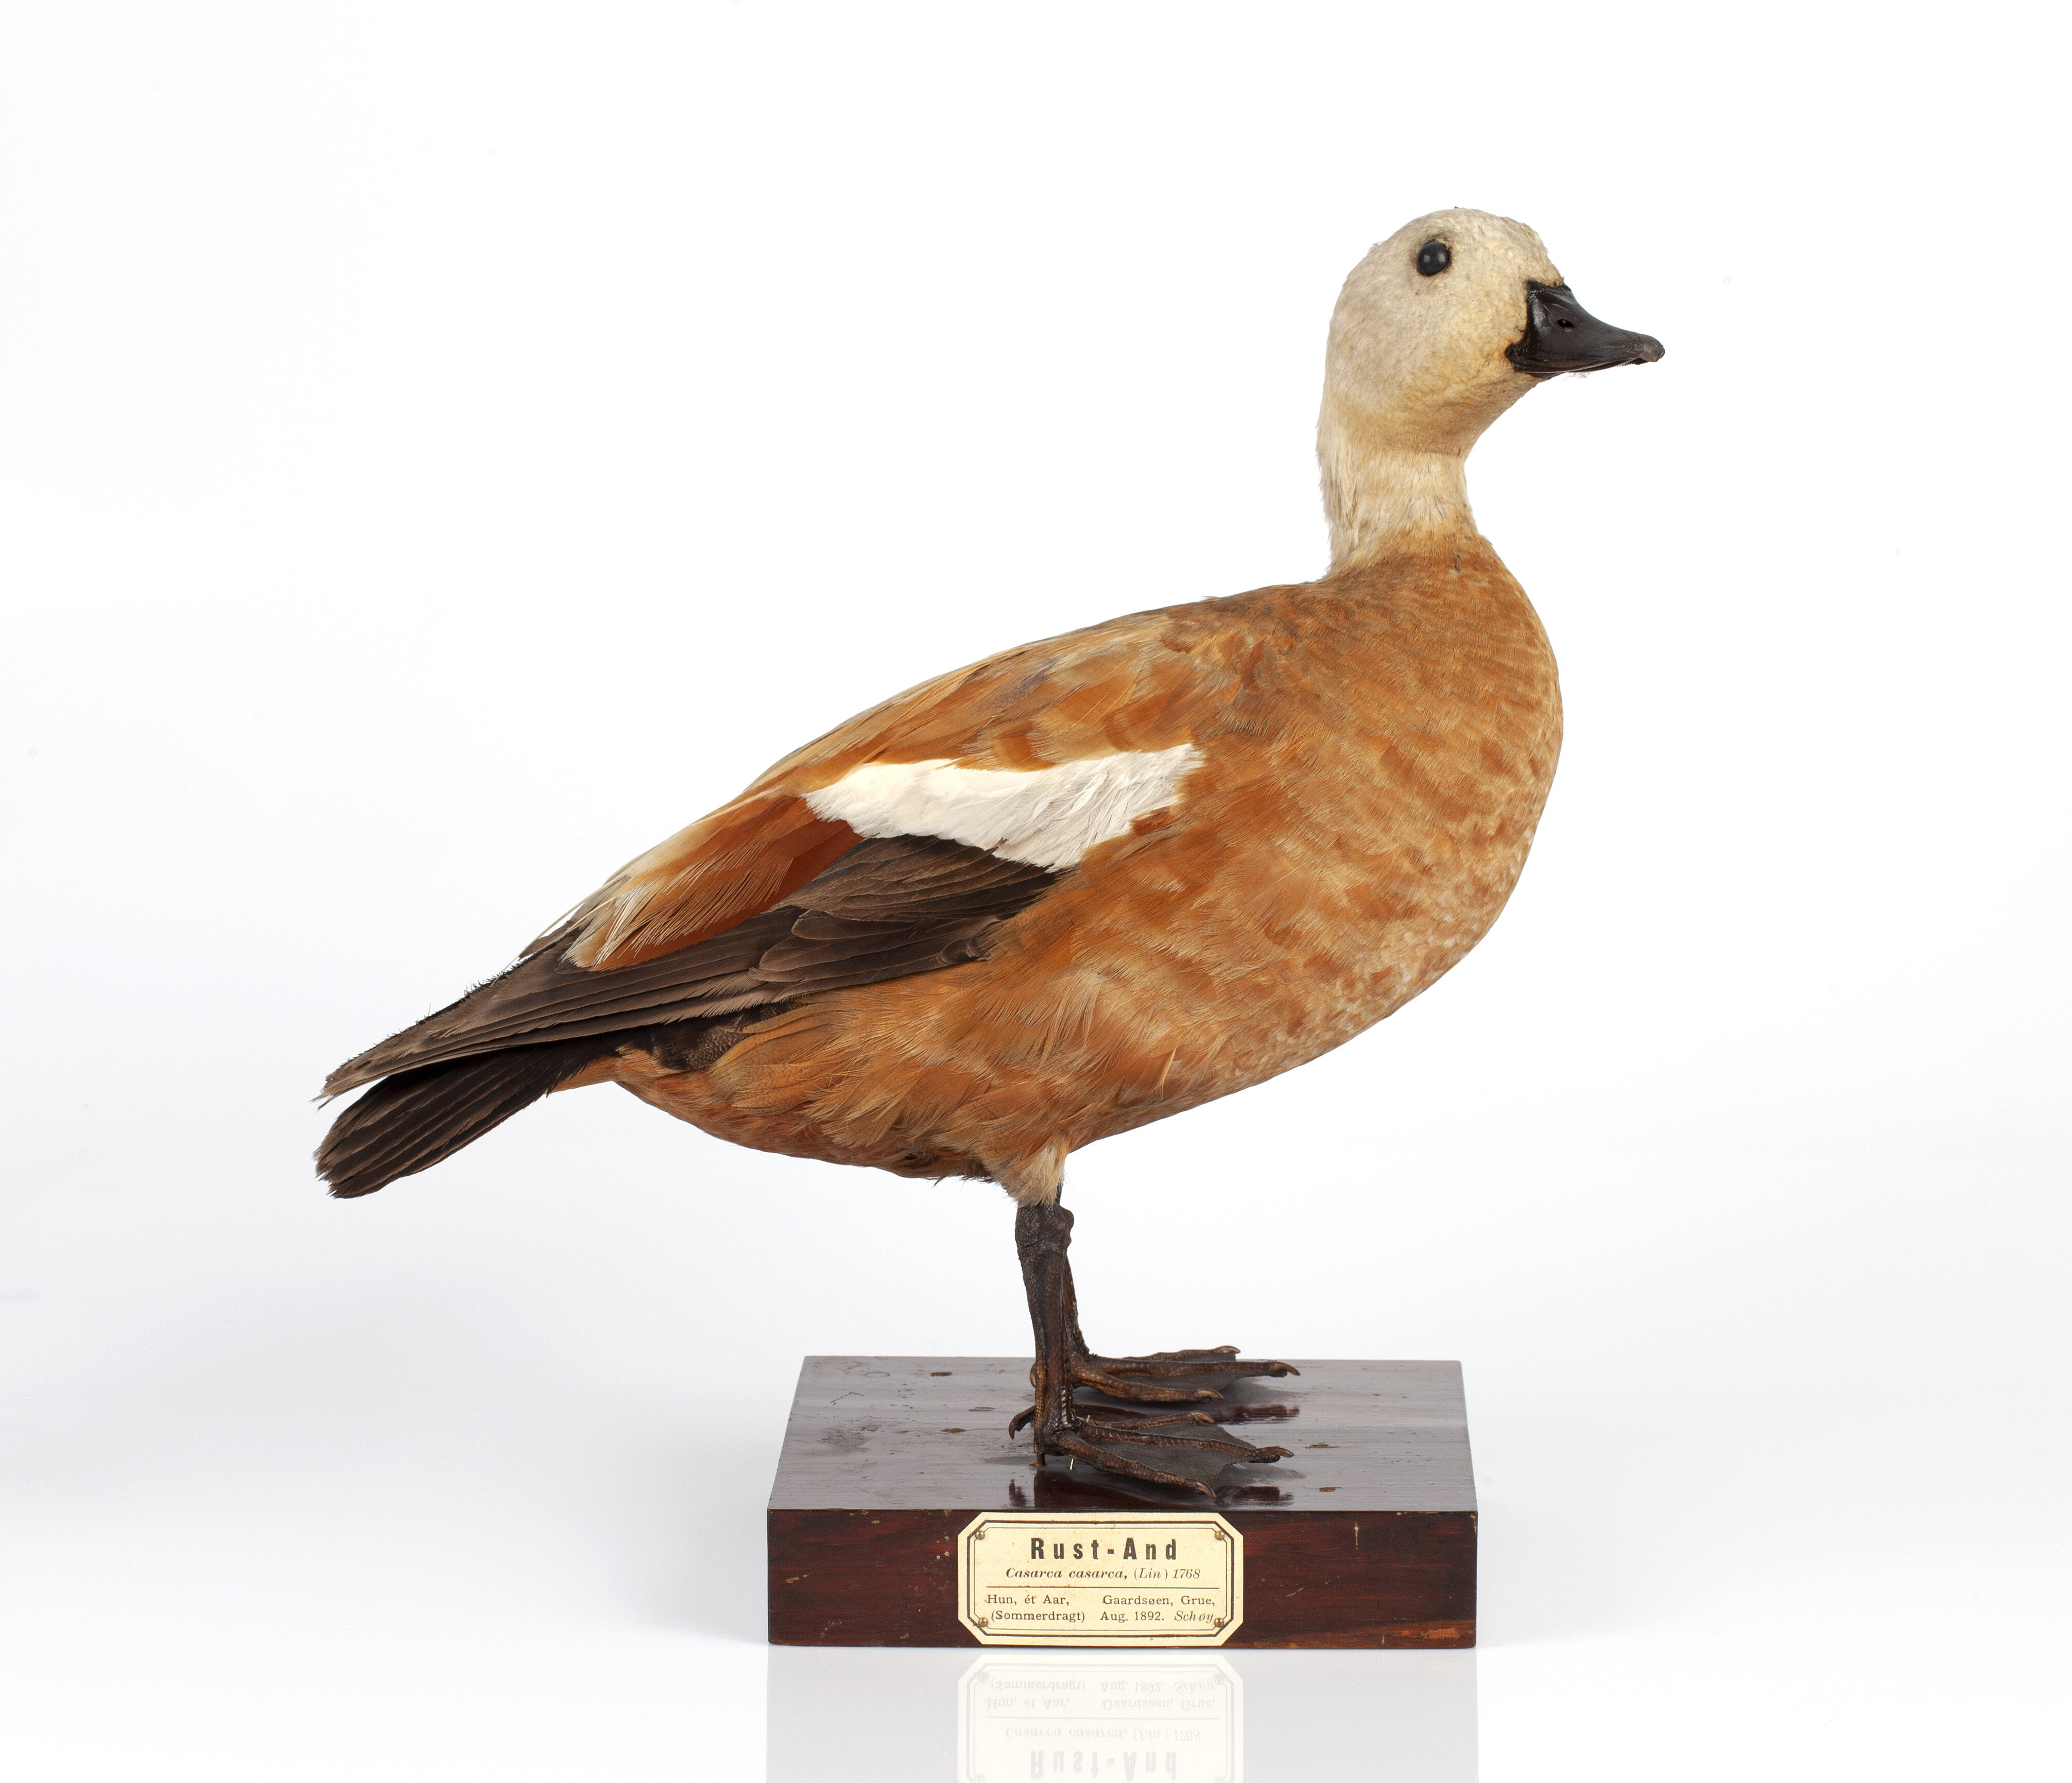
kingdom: Animalia
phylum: Chordata
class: Aves
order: Anseriformes
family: Anatidae
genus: Tadorna
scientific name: Tadorna ferruginea
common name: Ruddy shelduck
